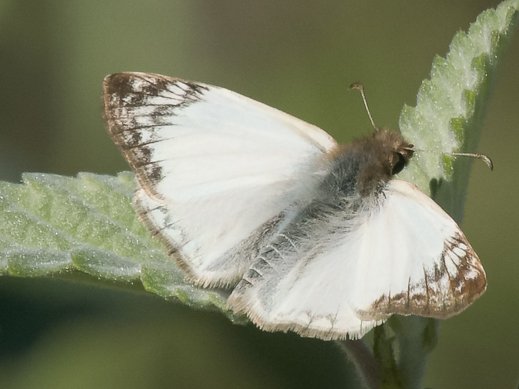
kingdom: Animalia
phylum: Arthropoda
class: Insecta
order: Lepidoptera
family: Hesperiidae
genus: Heliopetes
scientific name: Heliopetes laviana
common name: Laviana White-Skipper
